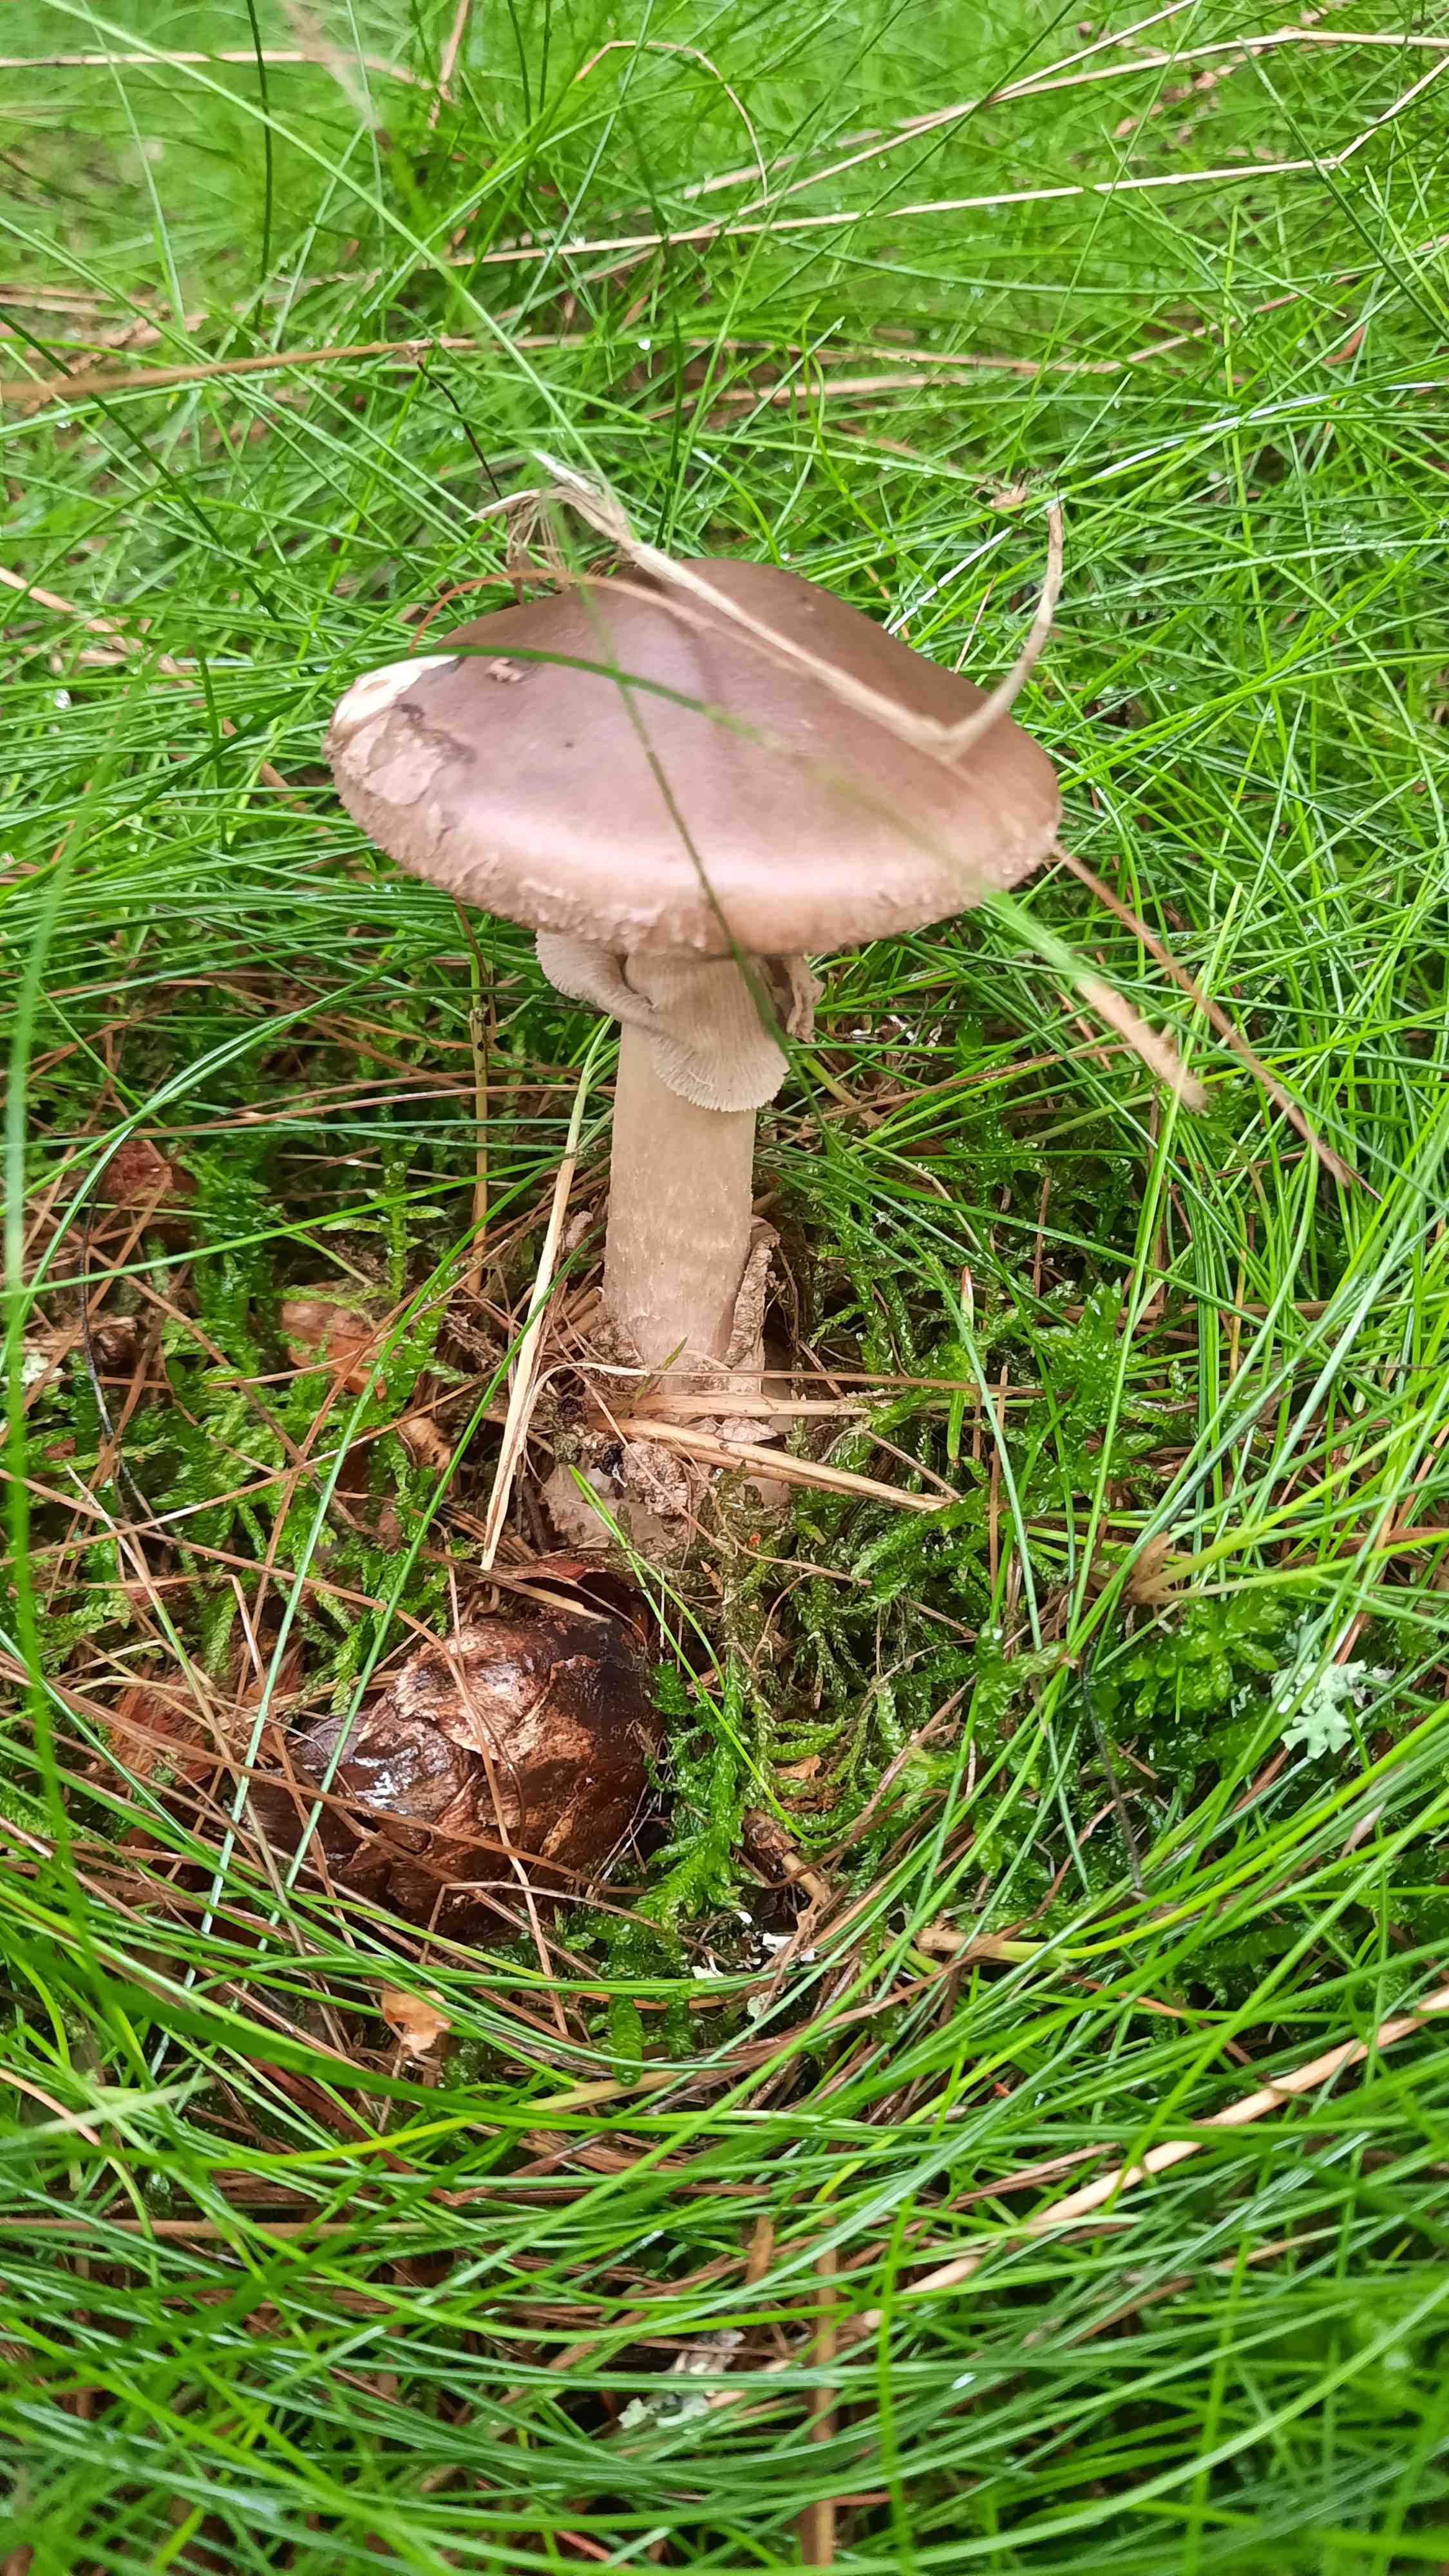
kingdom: Fungi
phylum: Basidiomycota
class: Agaricomycetes
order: Agaricales
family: Amanitaceae
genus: Amanita
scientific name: Amanita porphyria
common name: porfyr-fluesvamp
